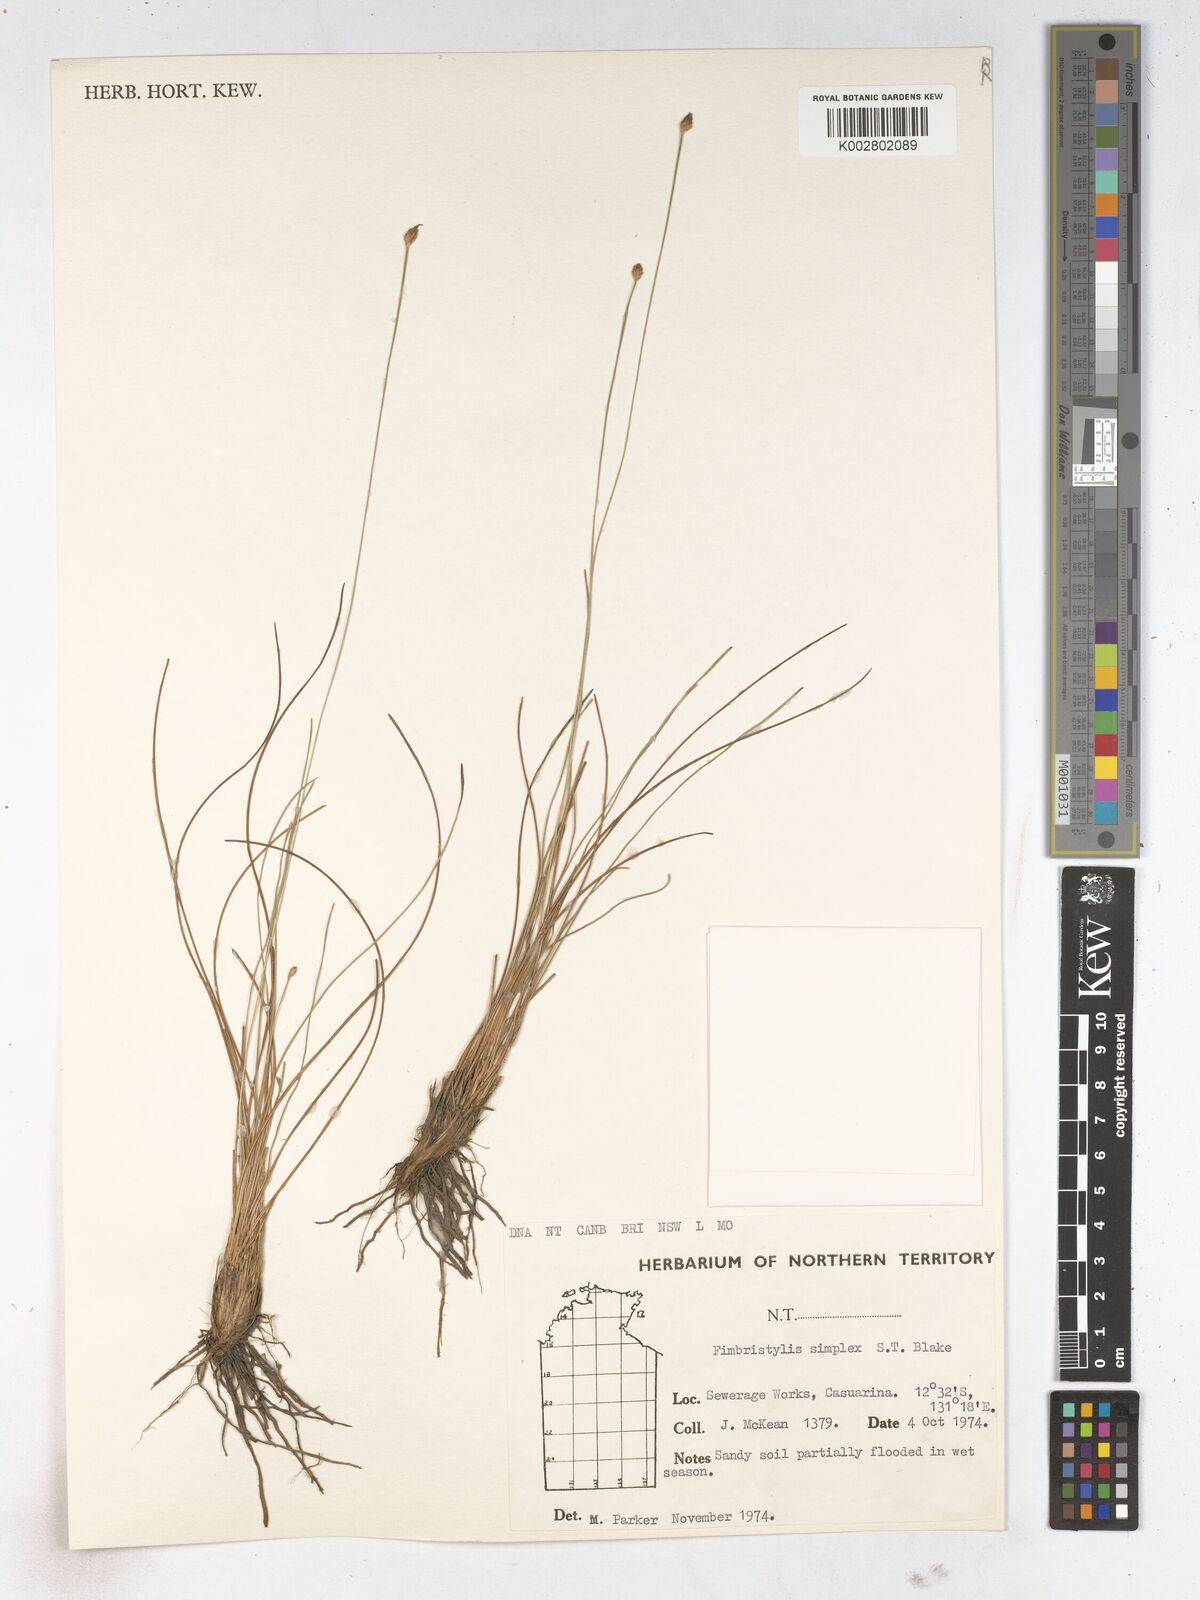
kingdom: Plantae
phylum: Tracheophyta
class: Liliopsida
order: Poales
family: Cyperaceae
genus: Fimbristylis
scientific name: Fimbristylis simplex
